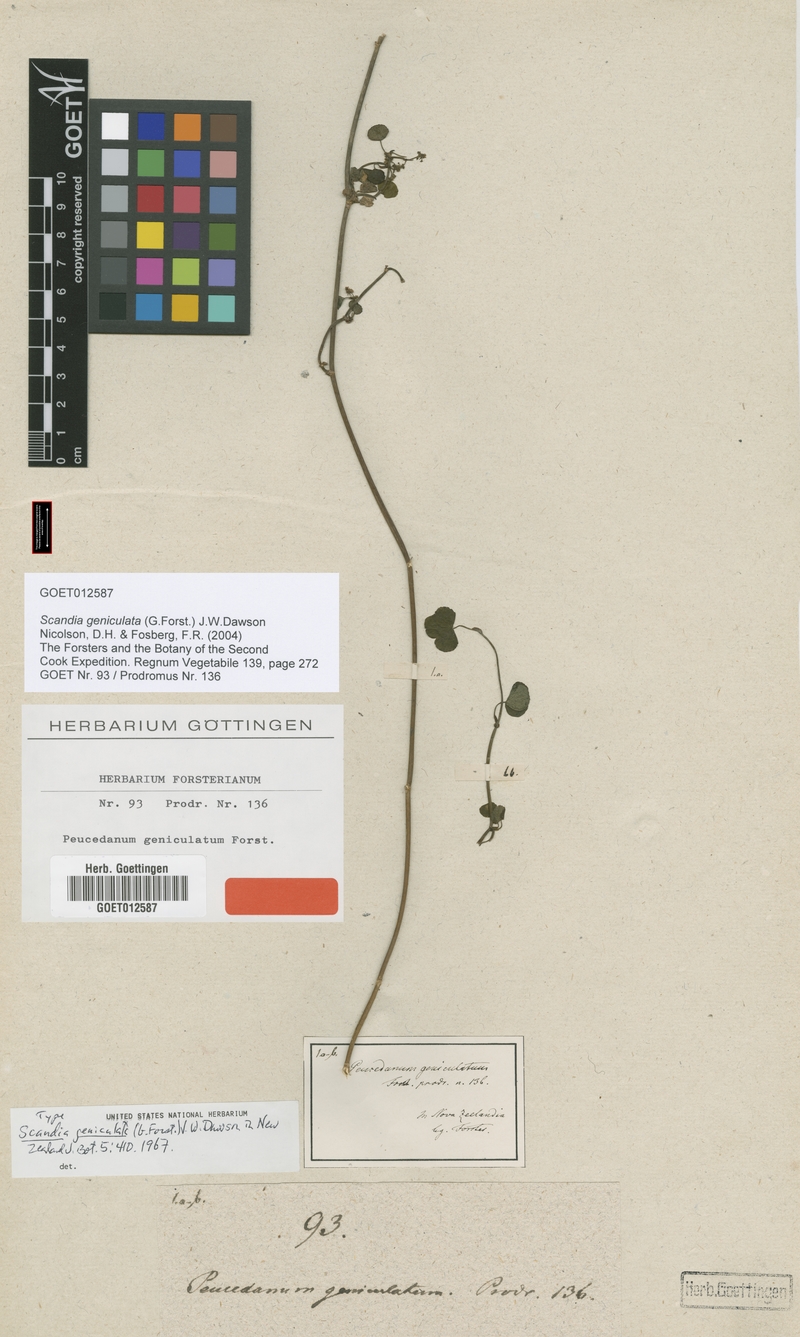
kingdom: Plantae
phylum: Tracheophyta
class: Magnoliopsida
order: Apiales
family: Apiaceae
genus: Scandia
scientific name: Scandia geniculata
